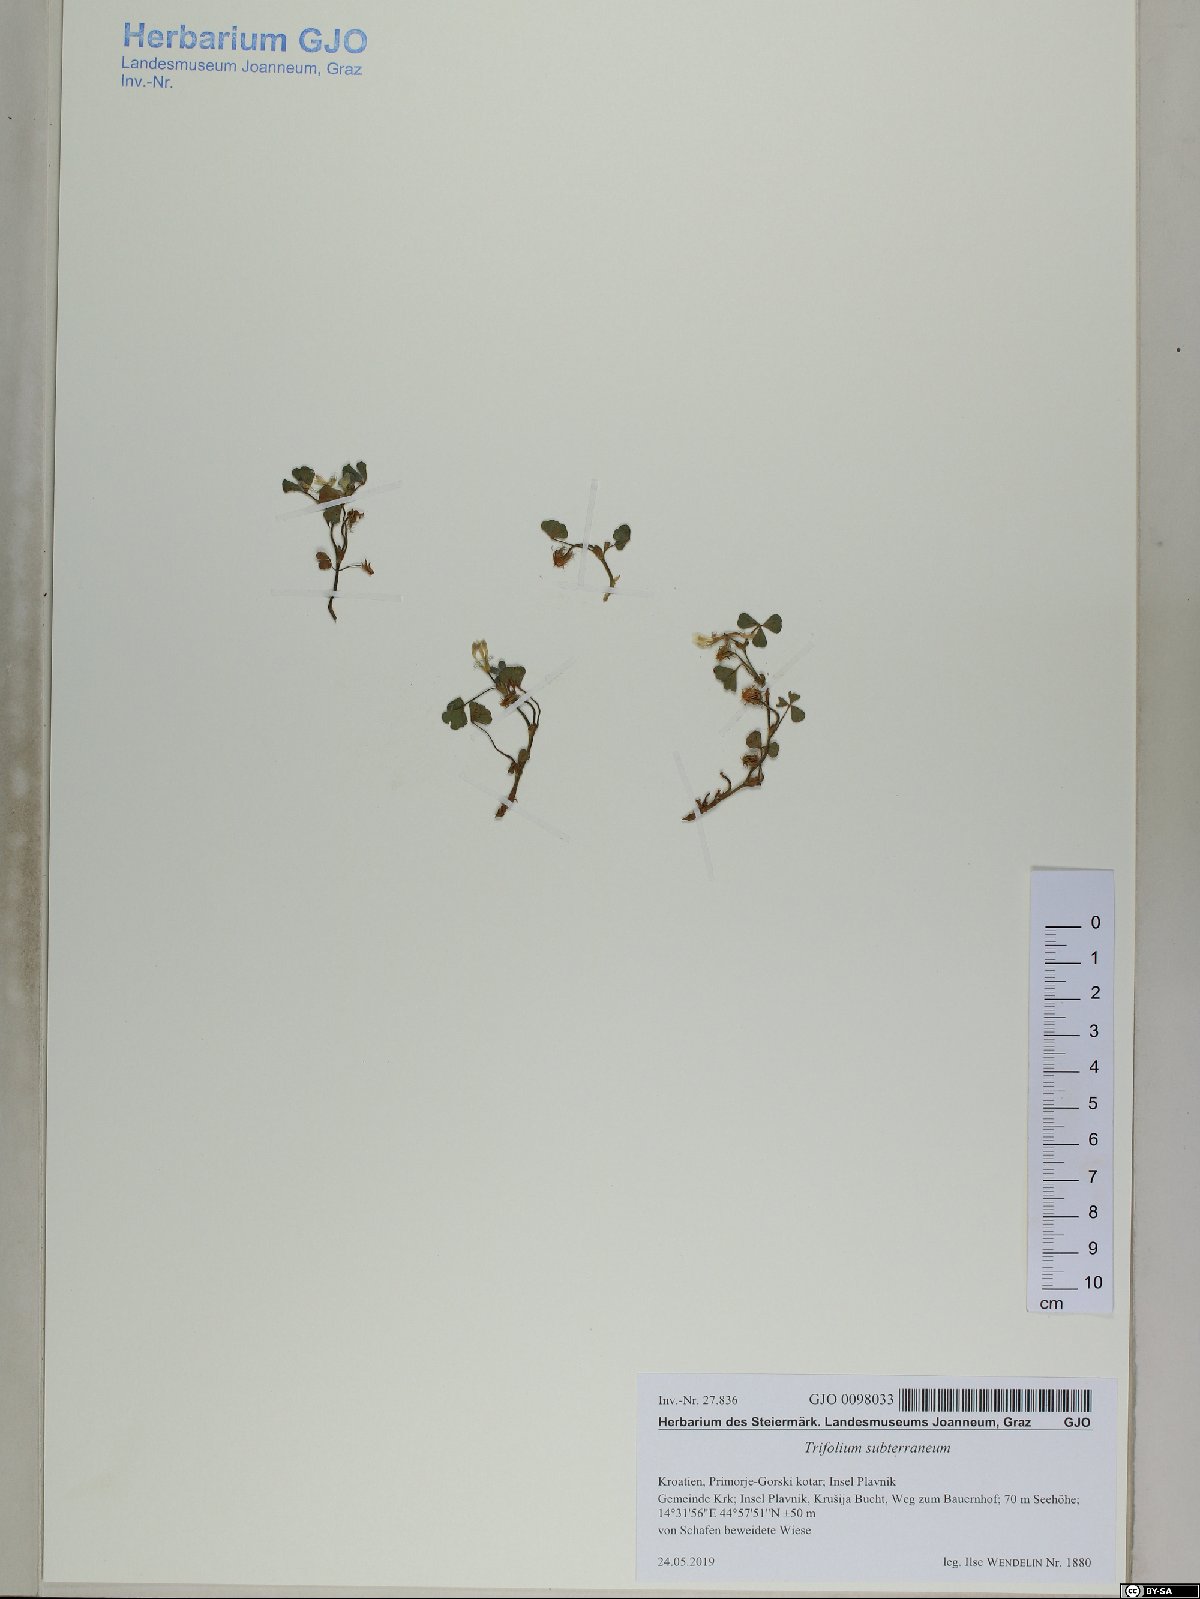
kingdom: Plantae
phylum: Tracheophyta
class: Magnoliopsida
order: Fabales
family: Fabaceae
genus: Trifolium
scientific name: Trifolium subterraneum
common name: Subterranean clover
